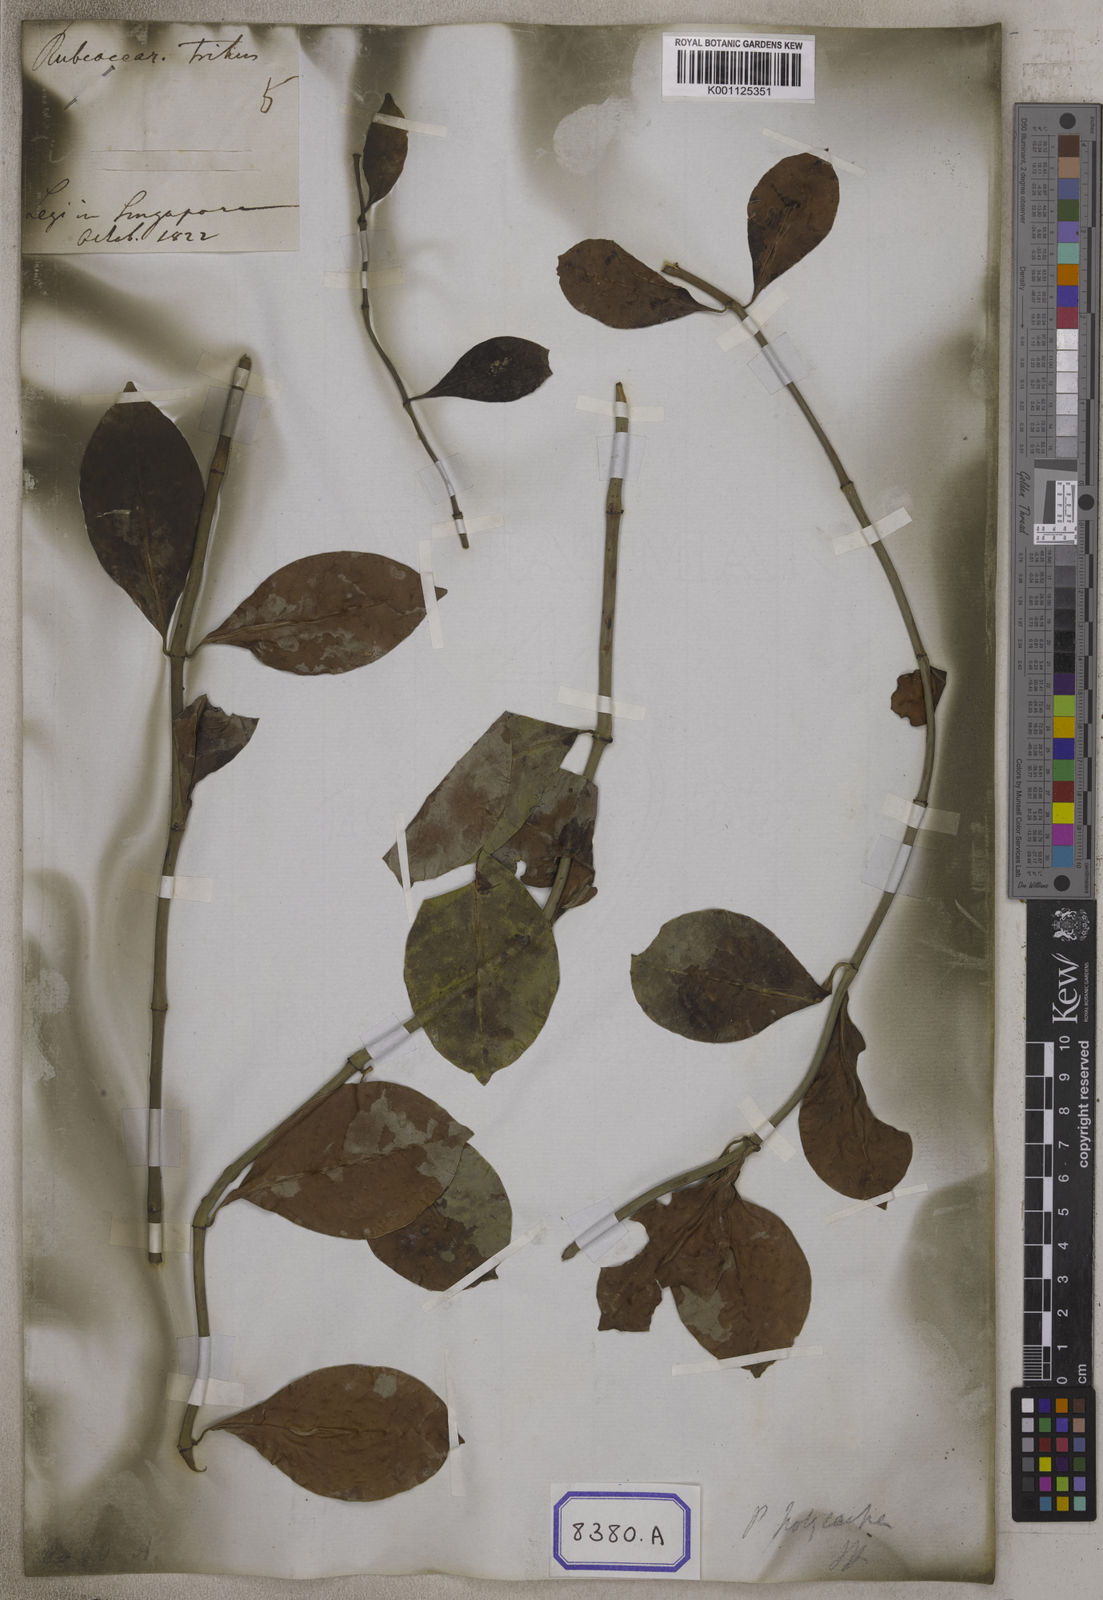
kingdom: Plantae
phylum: Tracheophyta
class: Magnoliopsida
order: Gentianales
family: Rubiaceae
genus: Psychotria
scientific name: Psychotria
